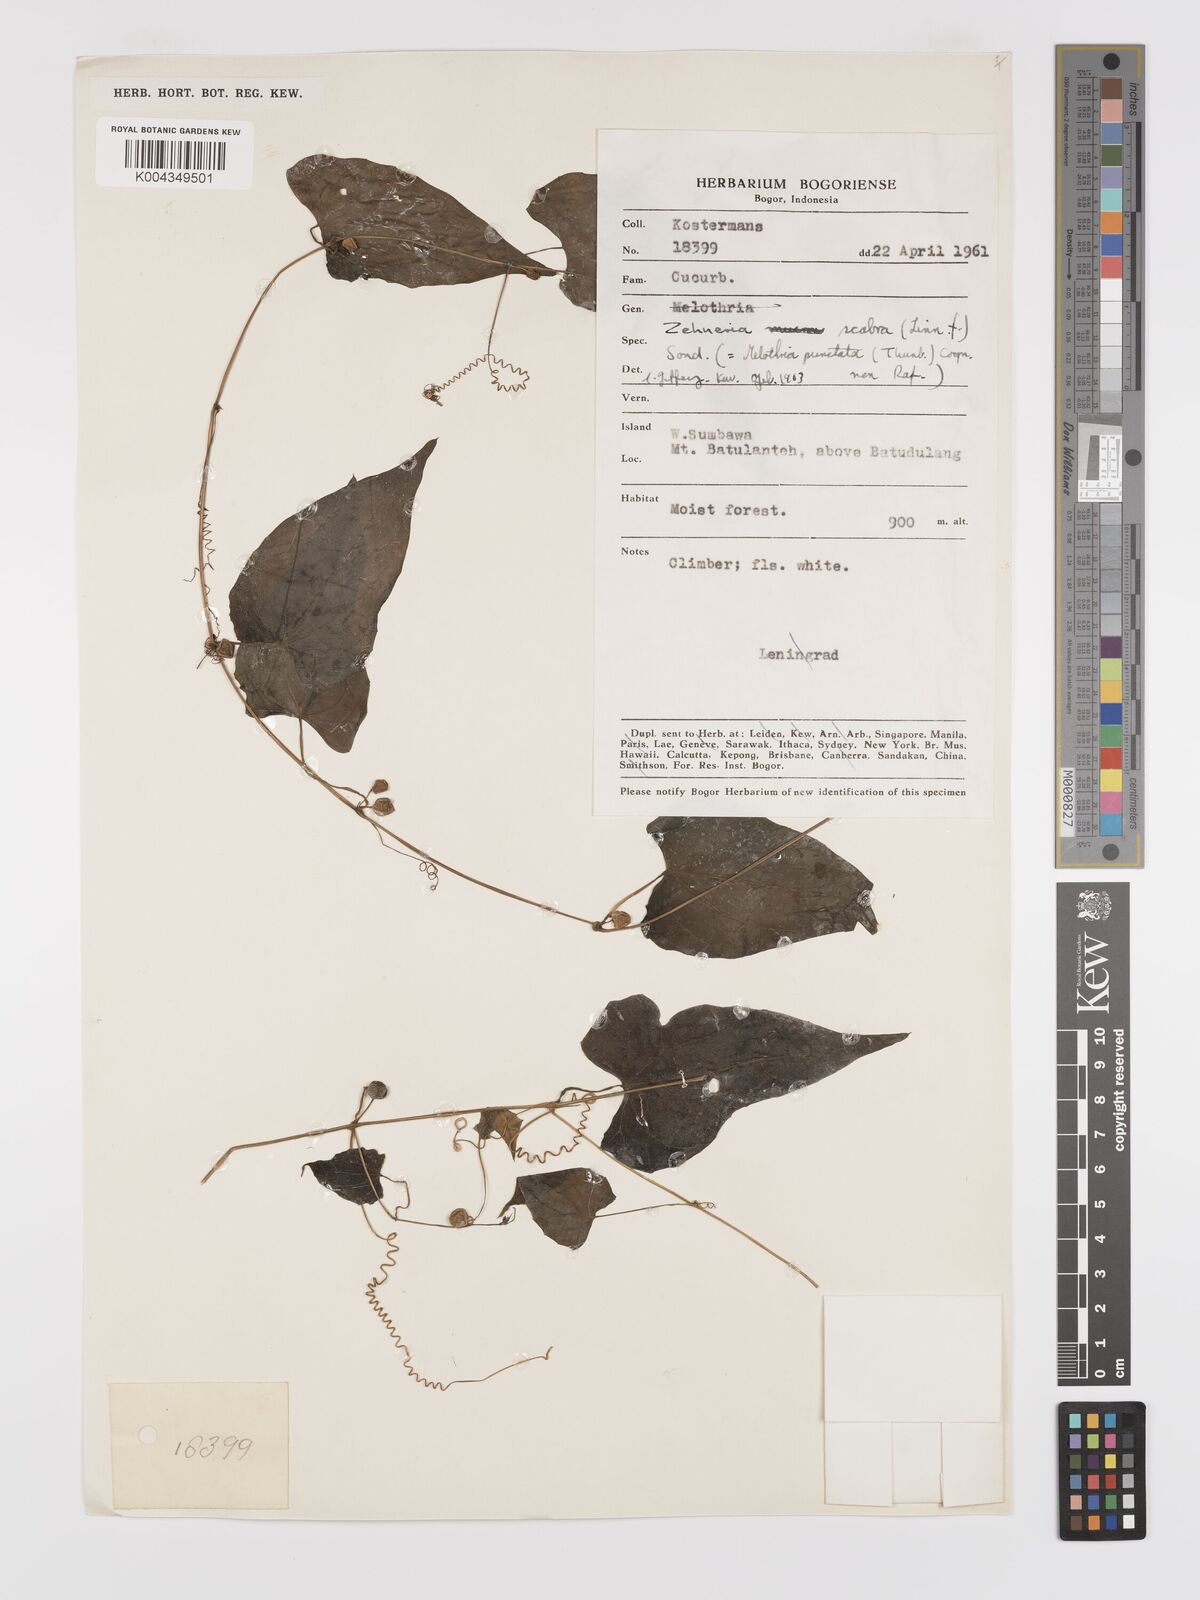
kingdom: Plantae
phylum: Tracheophyta
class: Magnoliopsida
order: Cucurbitales
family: Cucurbitaceae
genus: Zehneria
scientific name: Zehneria mucronata
